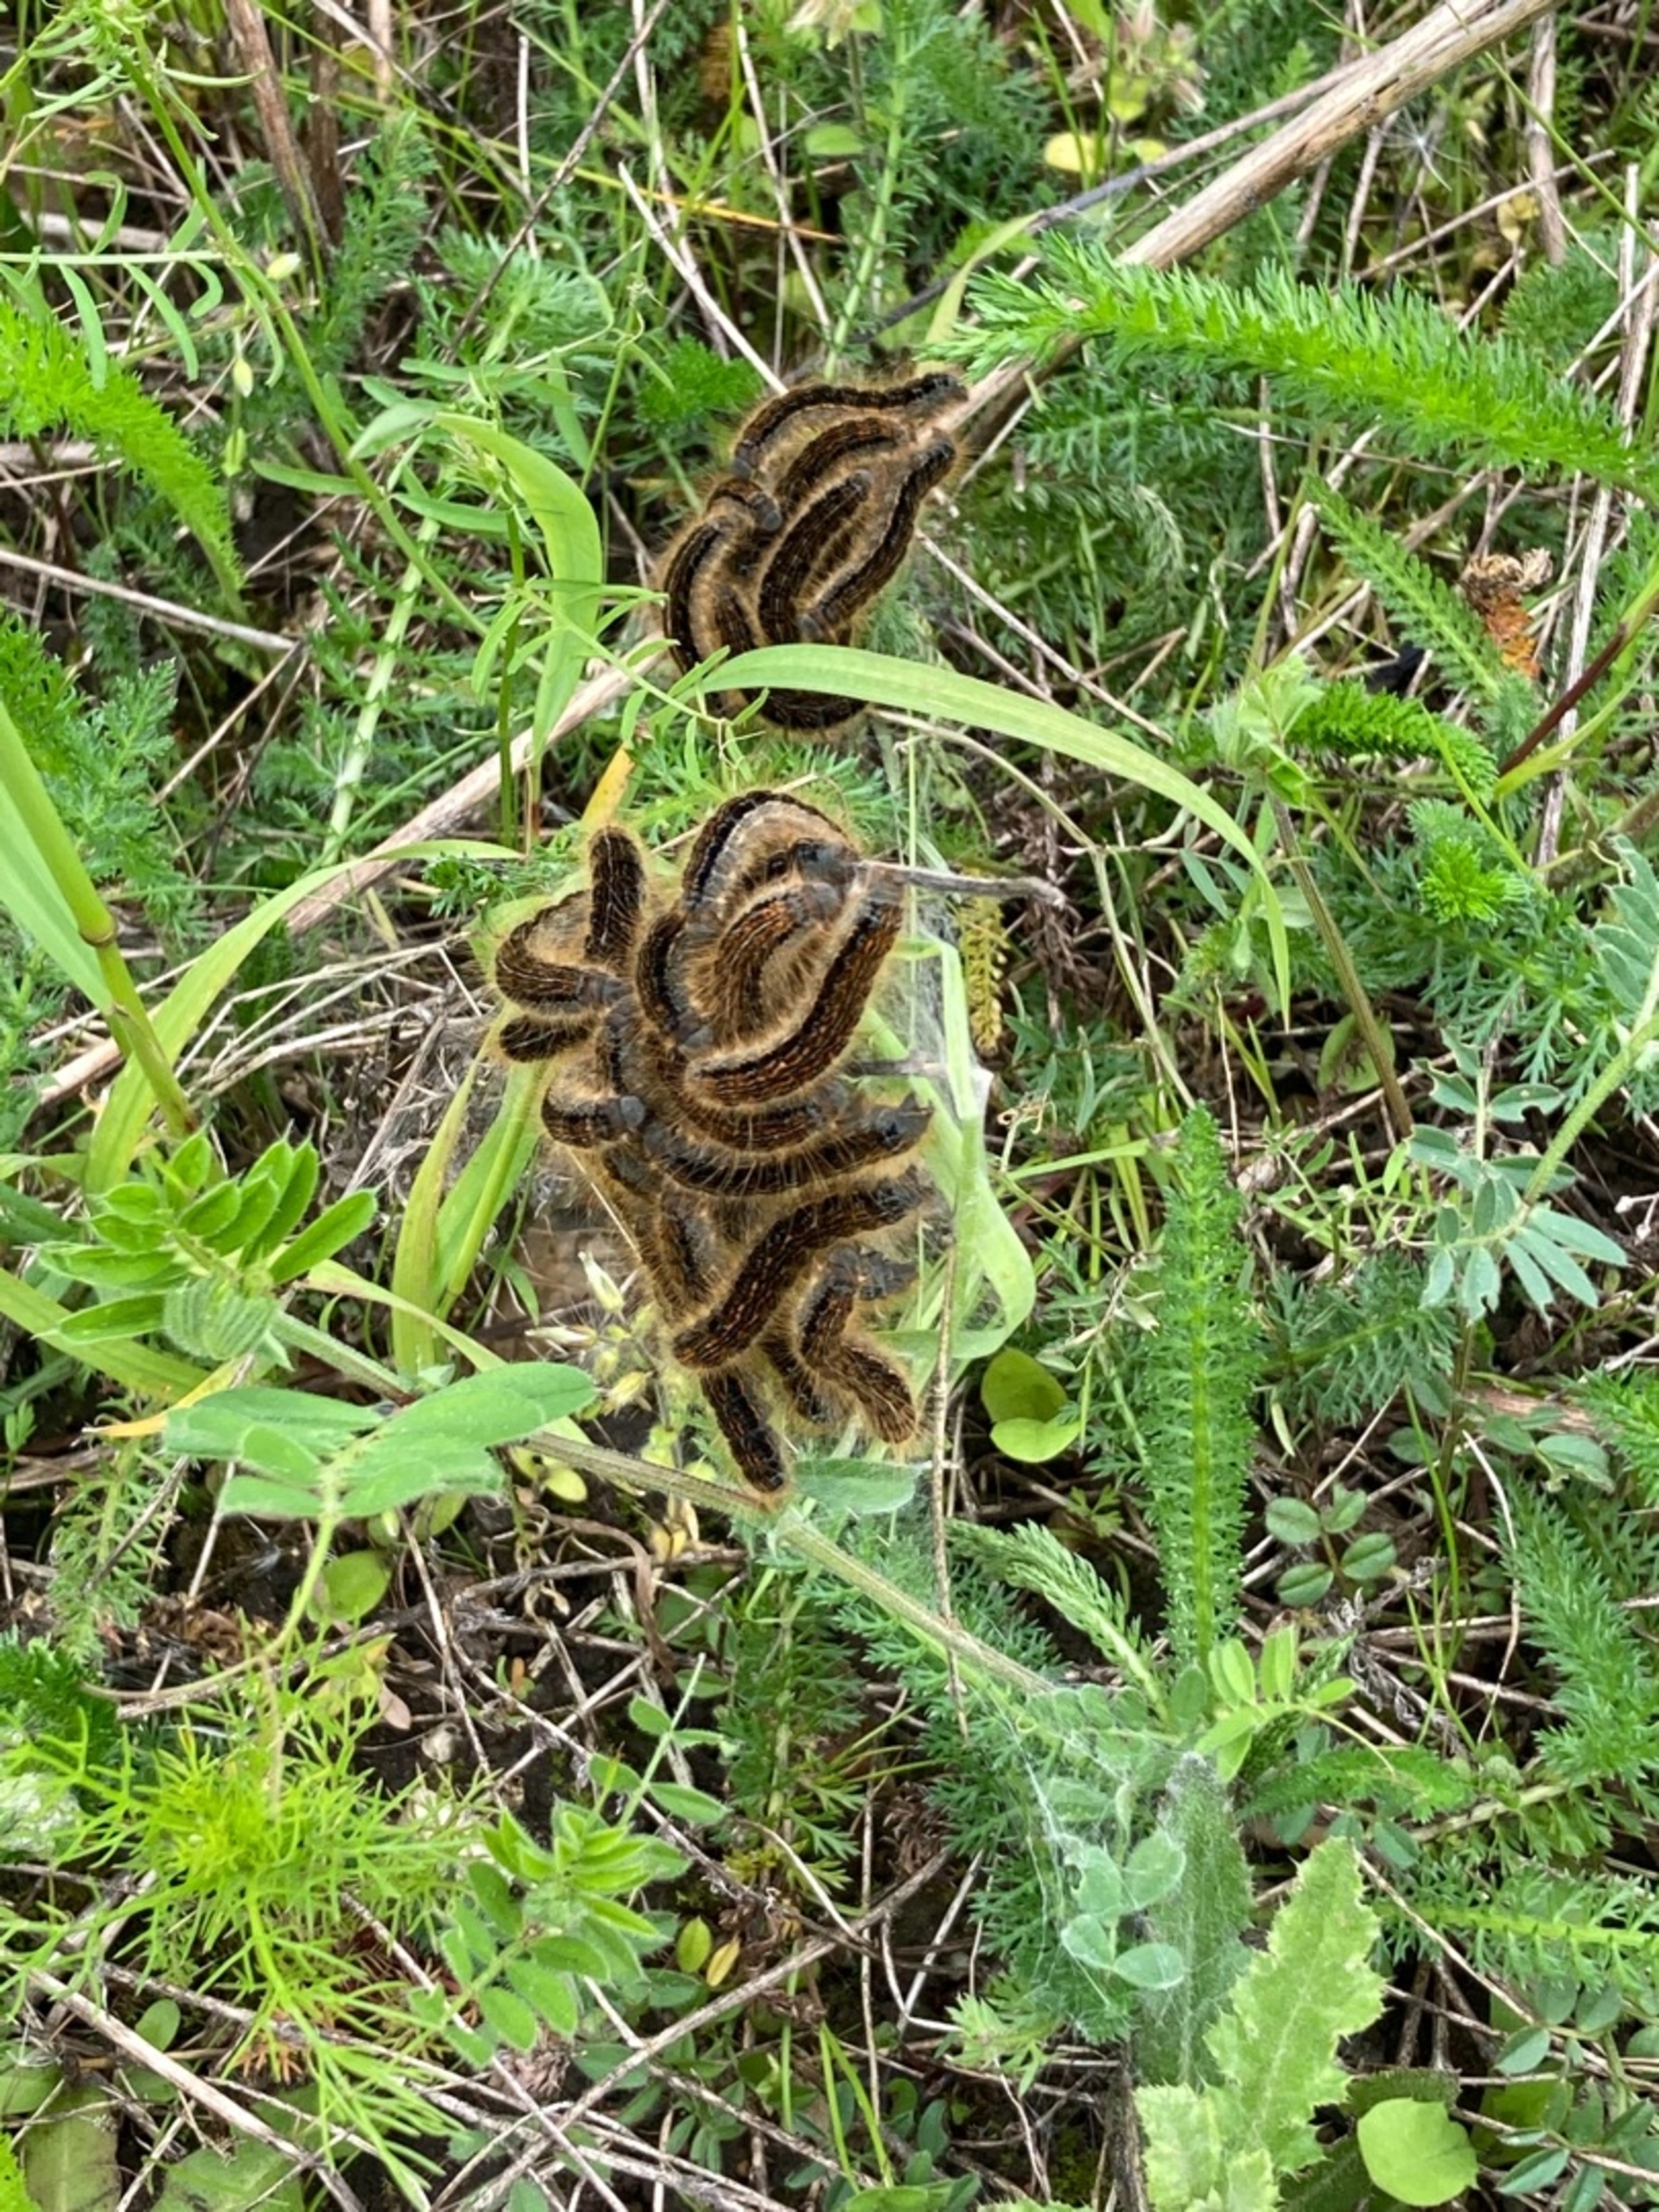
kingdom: Animalia
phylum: Arthropoda
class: Insecta
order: Lepidoptera
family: Lasiocampidae
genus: Malacosoma
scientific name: Malacosoma castrensis
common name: Redespinder
